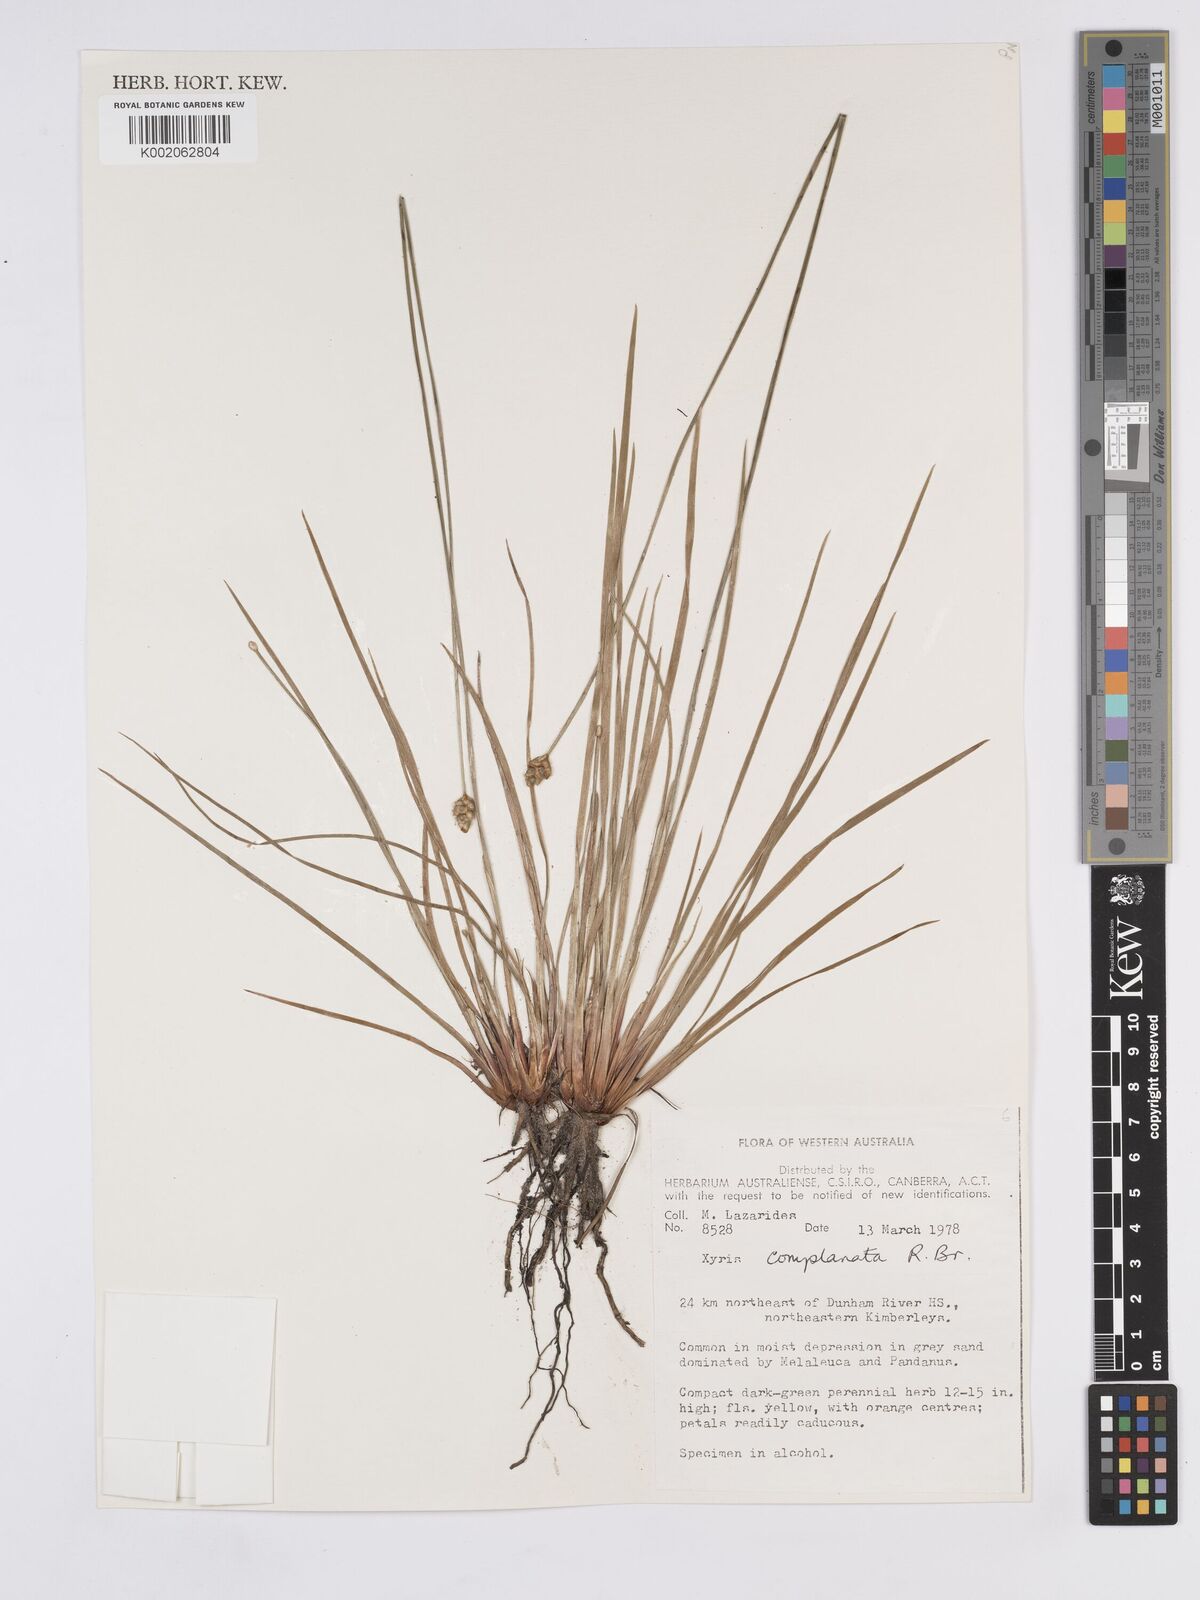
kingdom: Plantae
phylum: Tracheophyta
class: Liliopsida
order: Poales
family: Xyridaceae
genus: Xyris
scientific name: Xyris complanata
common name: Hawai'i yelloweyed grass
